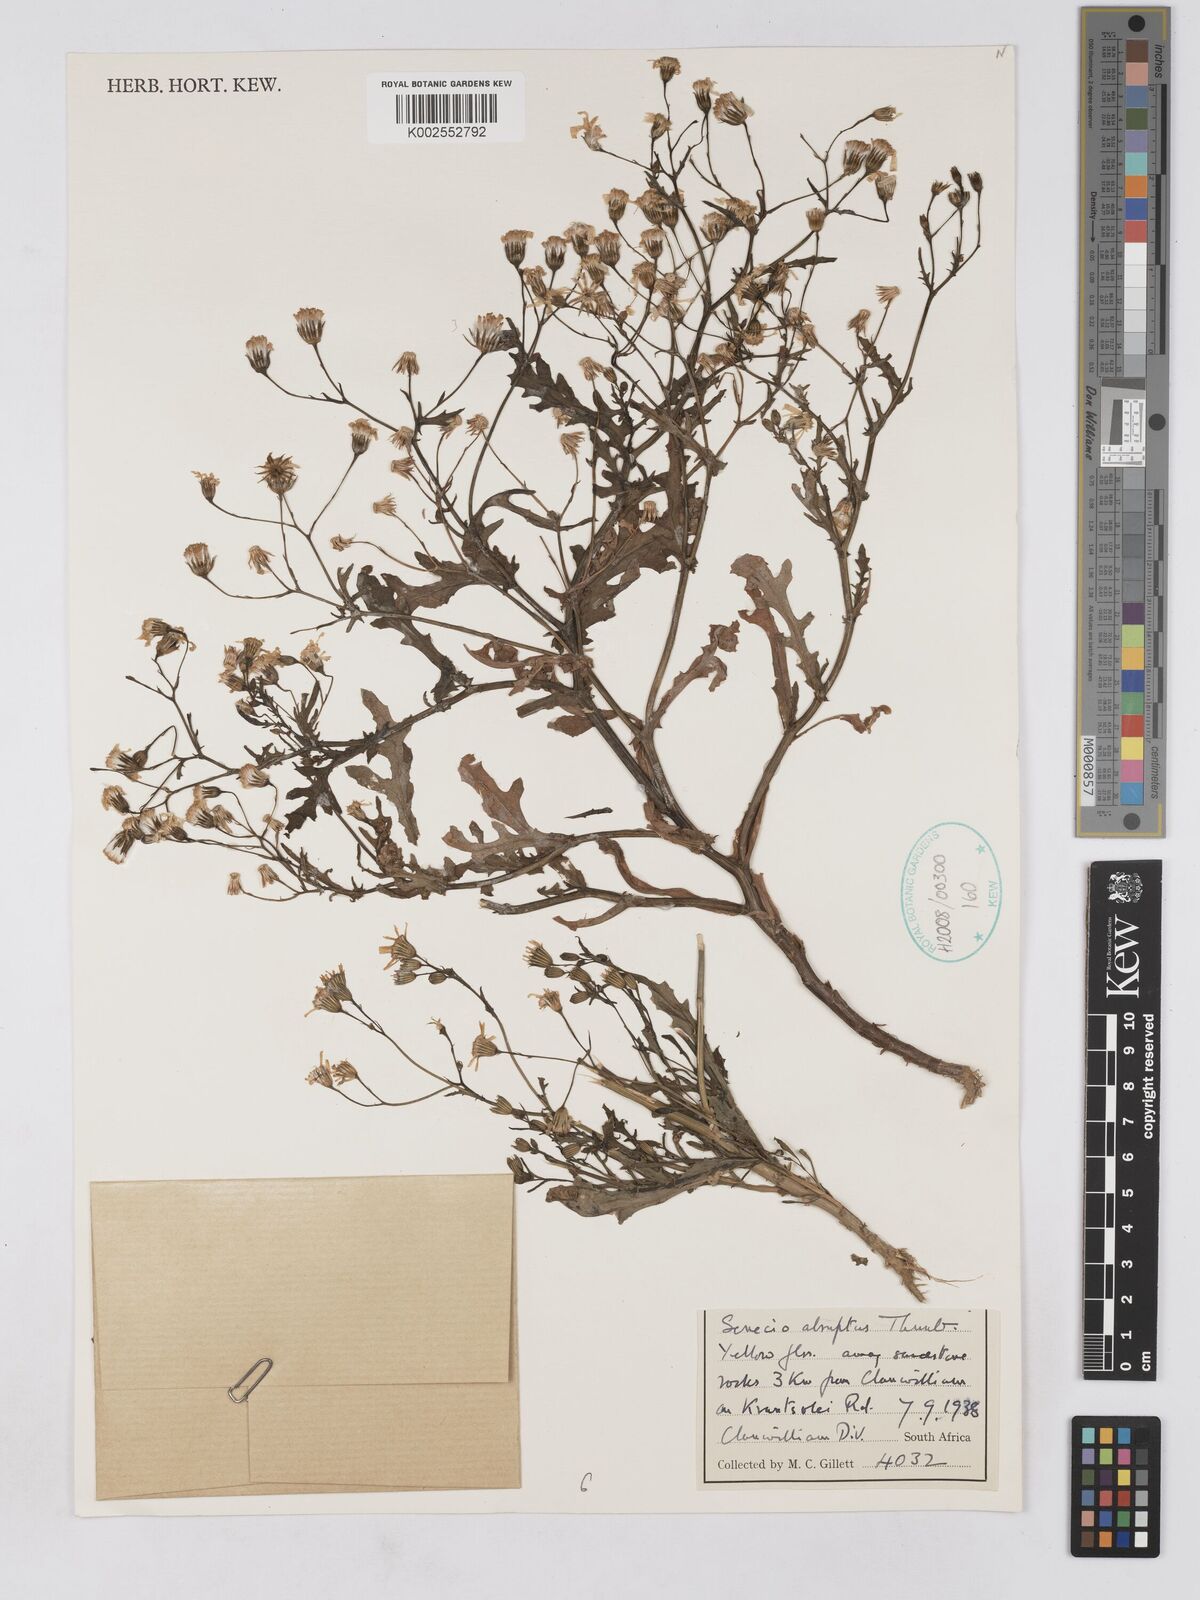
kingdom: Plantae
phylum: Tracheophyta
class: Magnoliopsida
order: Asterales
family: Asteraceae
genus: Senecio
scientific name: Senecio abruptus
